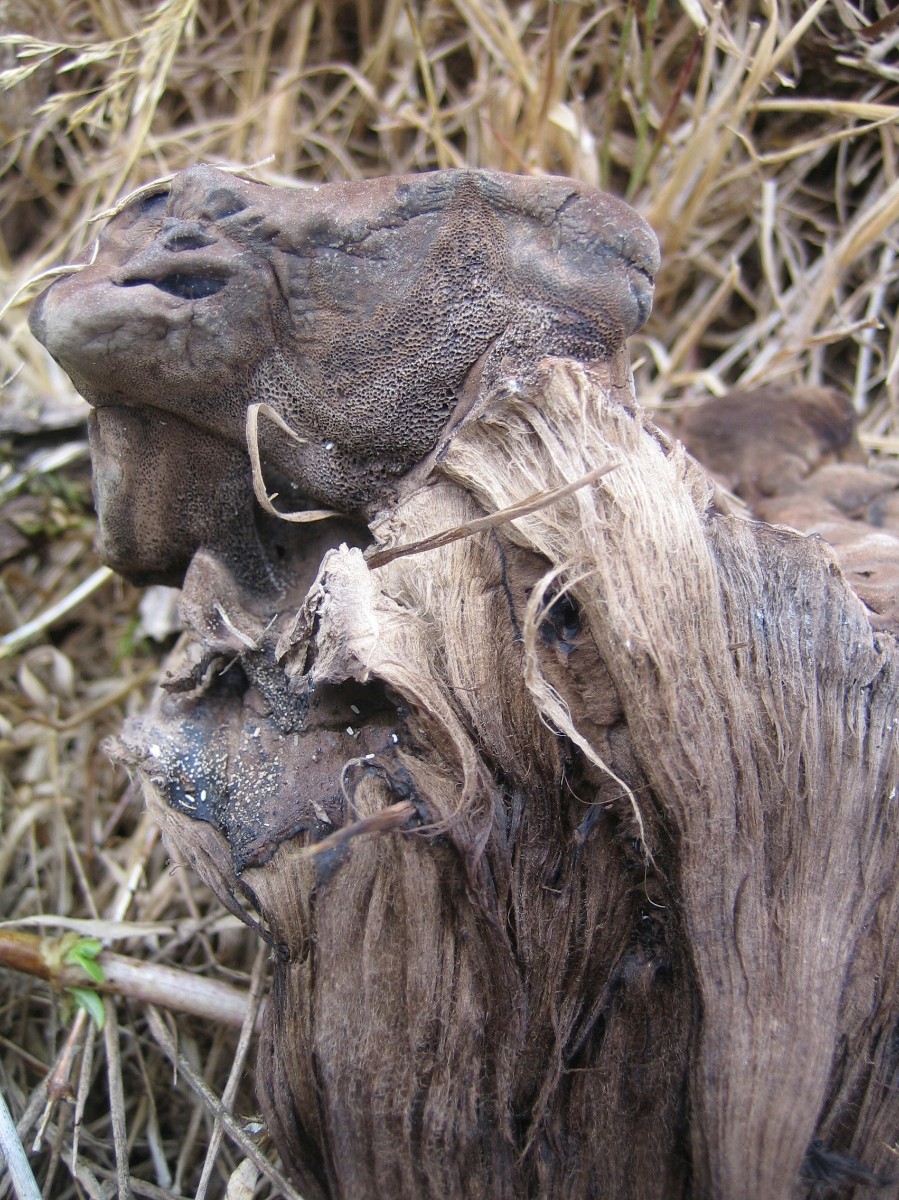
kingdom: Fungi
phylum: Basidiomycota
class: Agaricomycetes
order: Polyporales
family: Meripilaceae
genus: Meripilus
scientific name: Meripilus
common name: kæmpeporesvamp
